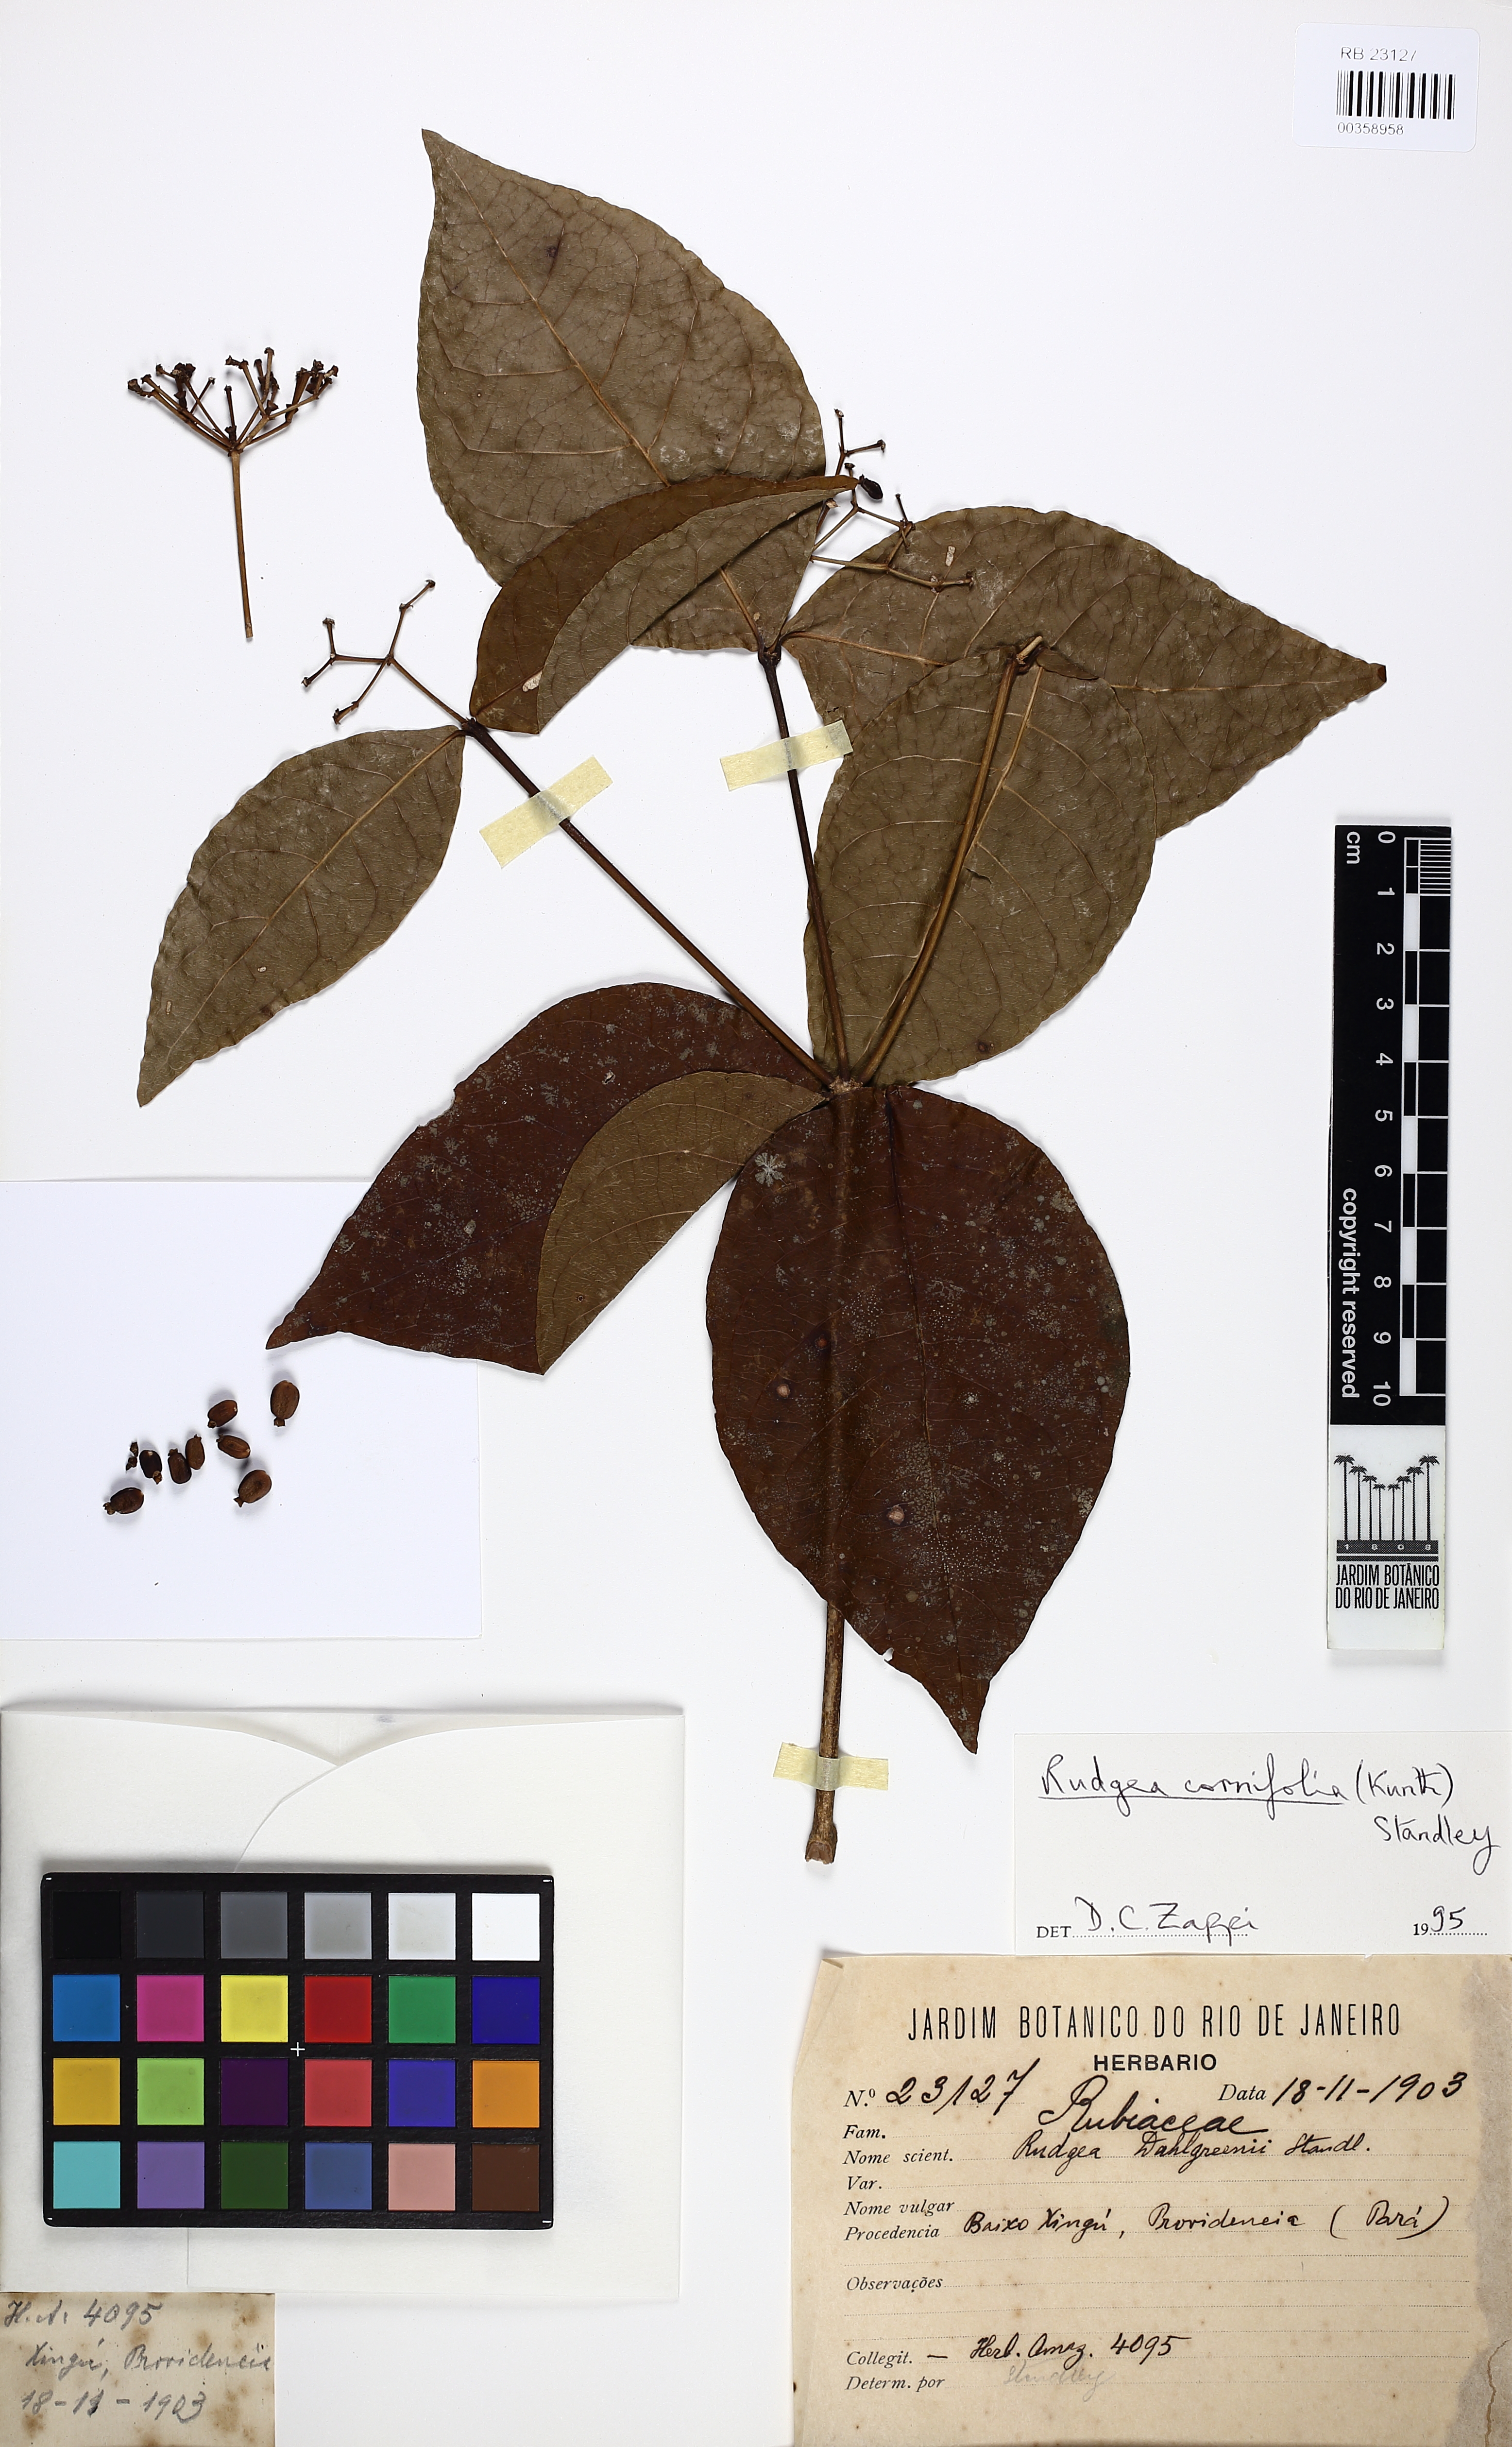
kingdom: Plantae
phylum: Tracheophyta
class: Magnoliopsida
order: Gentianales
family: Rubiaceae
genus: Rudgea
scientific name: Rudgea cornifolia
